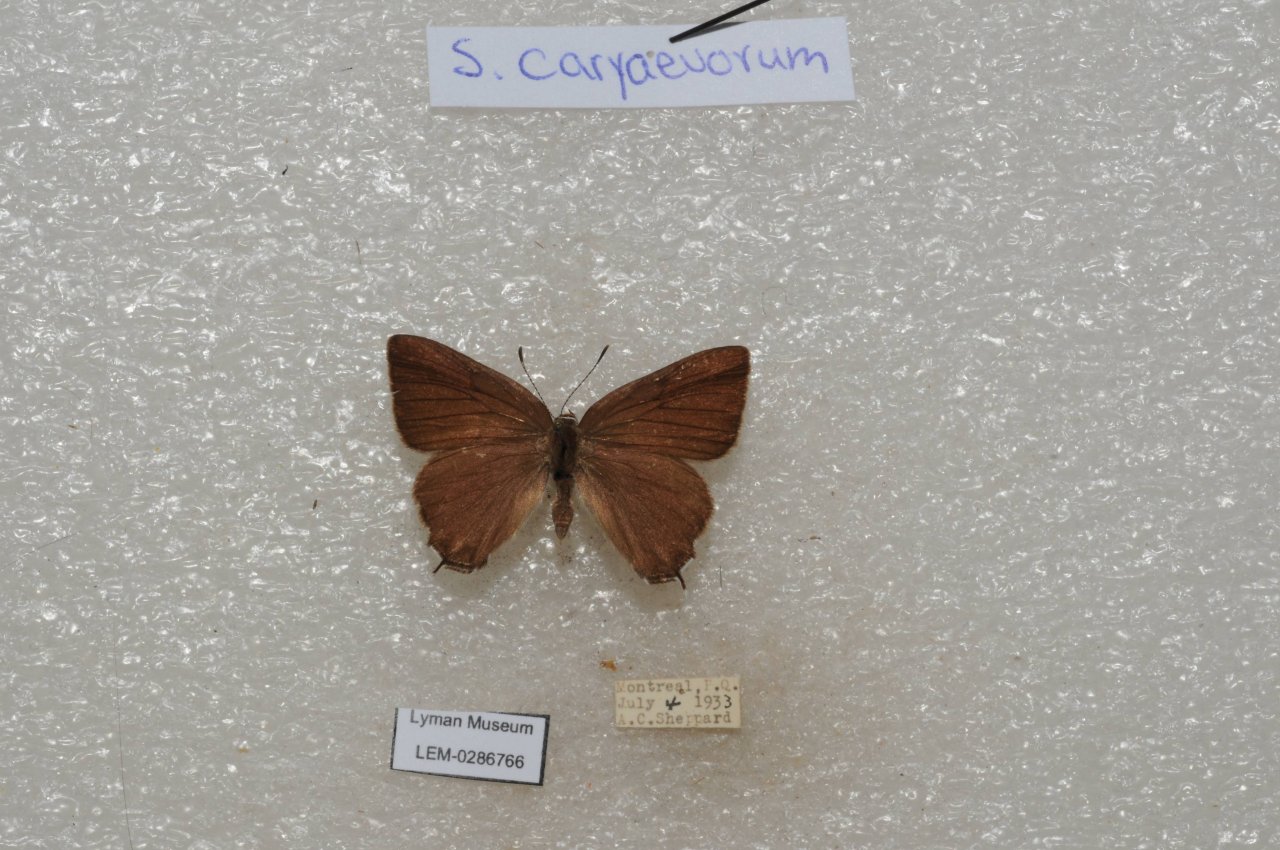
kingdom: Animalia
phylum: Arthropoda
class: Insecta
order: Lepidoptera
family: Lycaenidae
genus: Strymon
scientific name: Strymon caryaevorus
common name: Hickory Hairstreak
